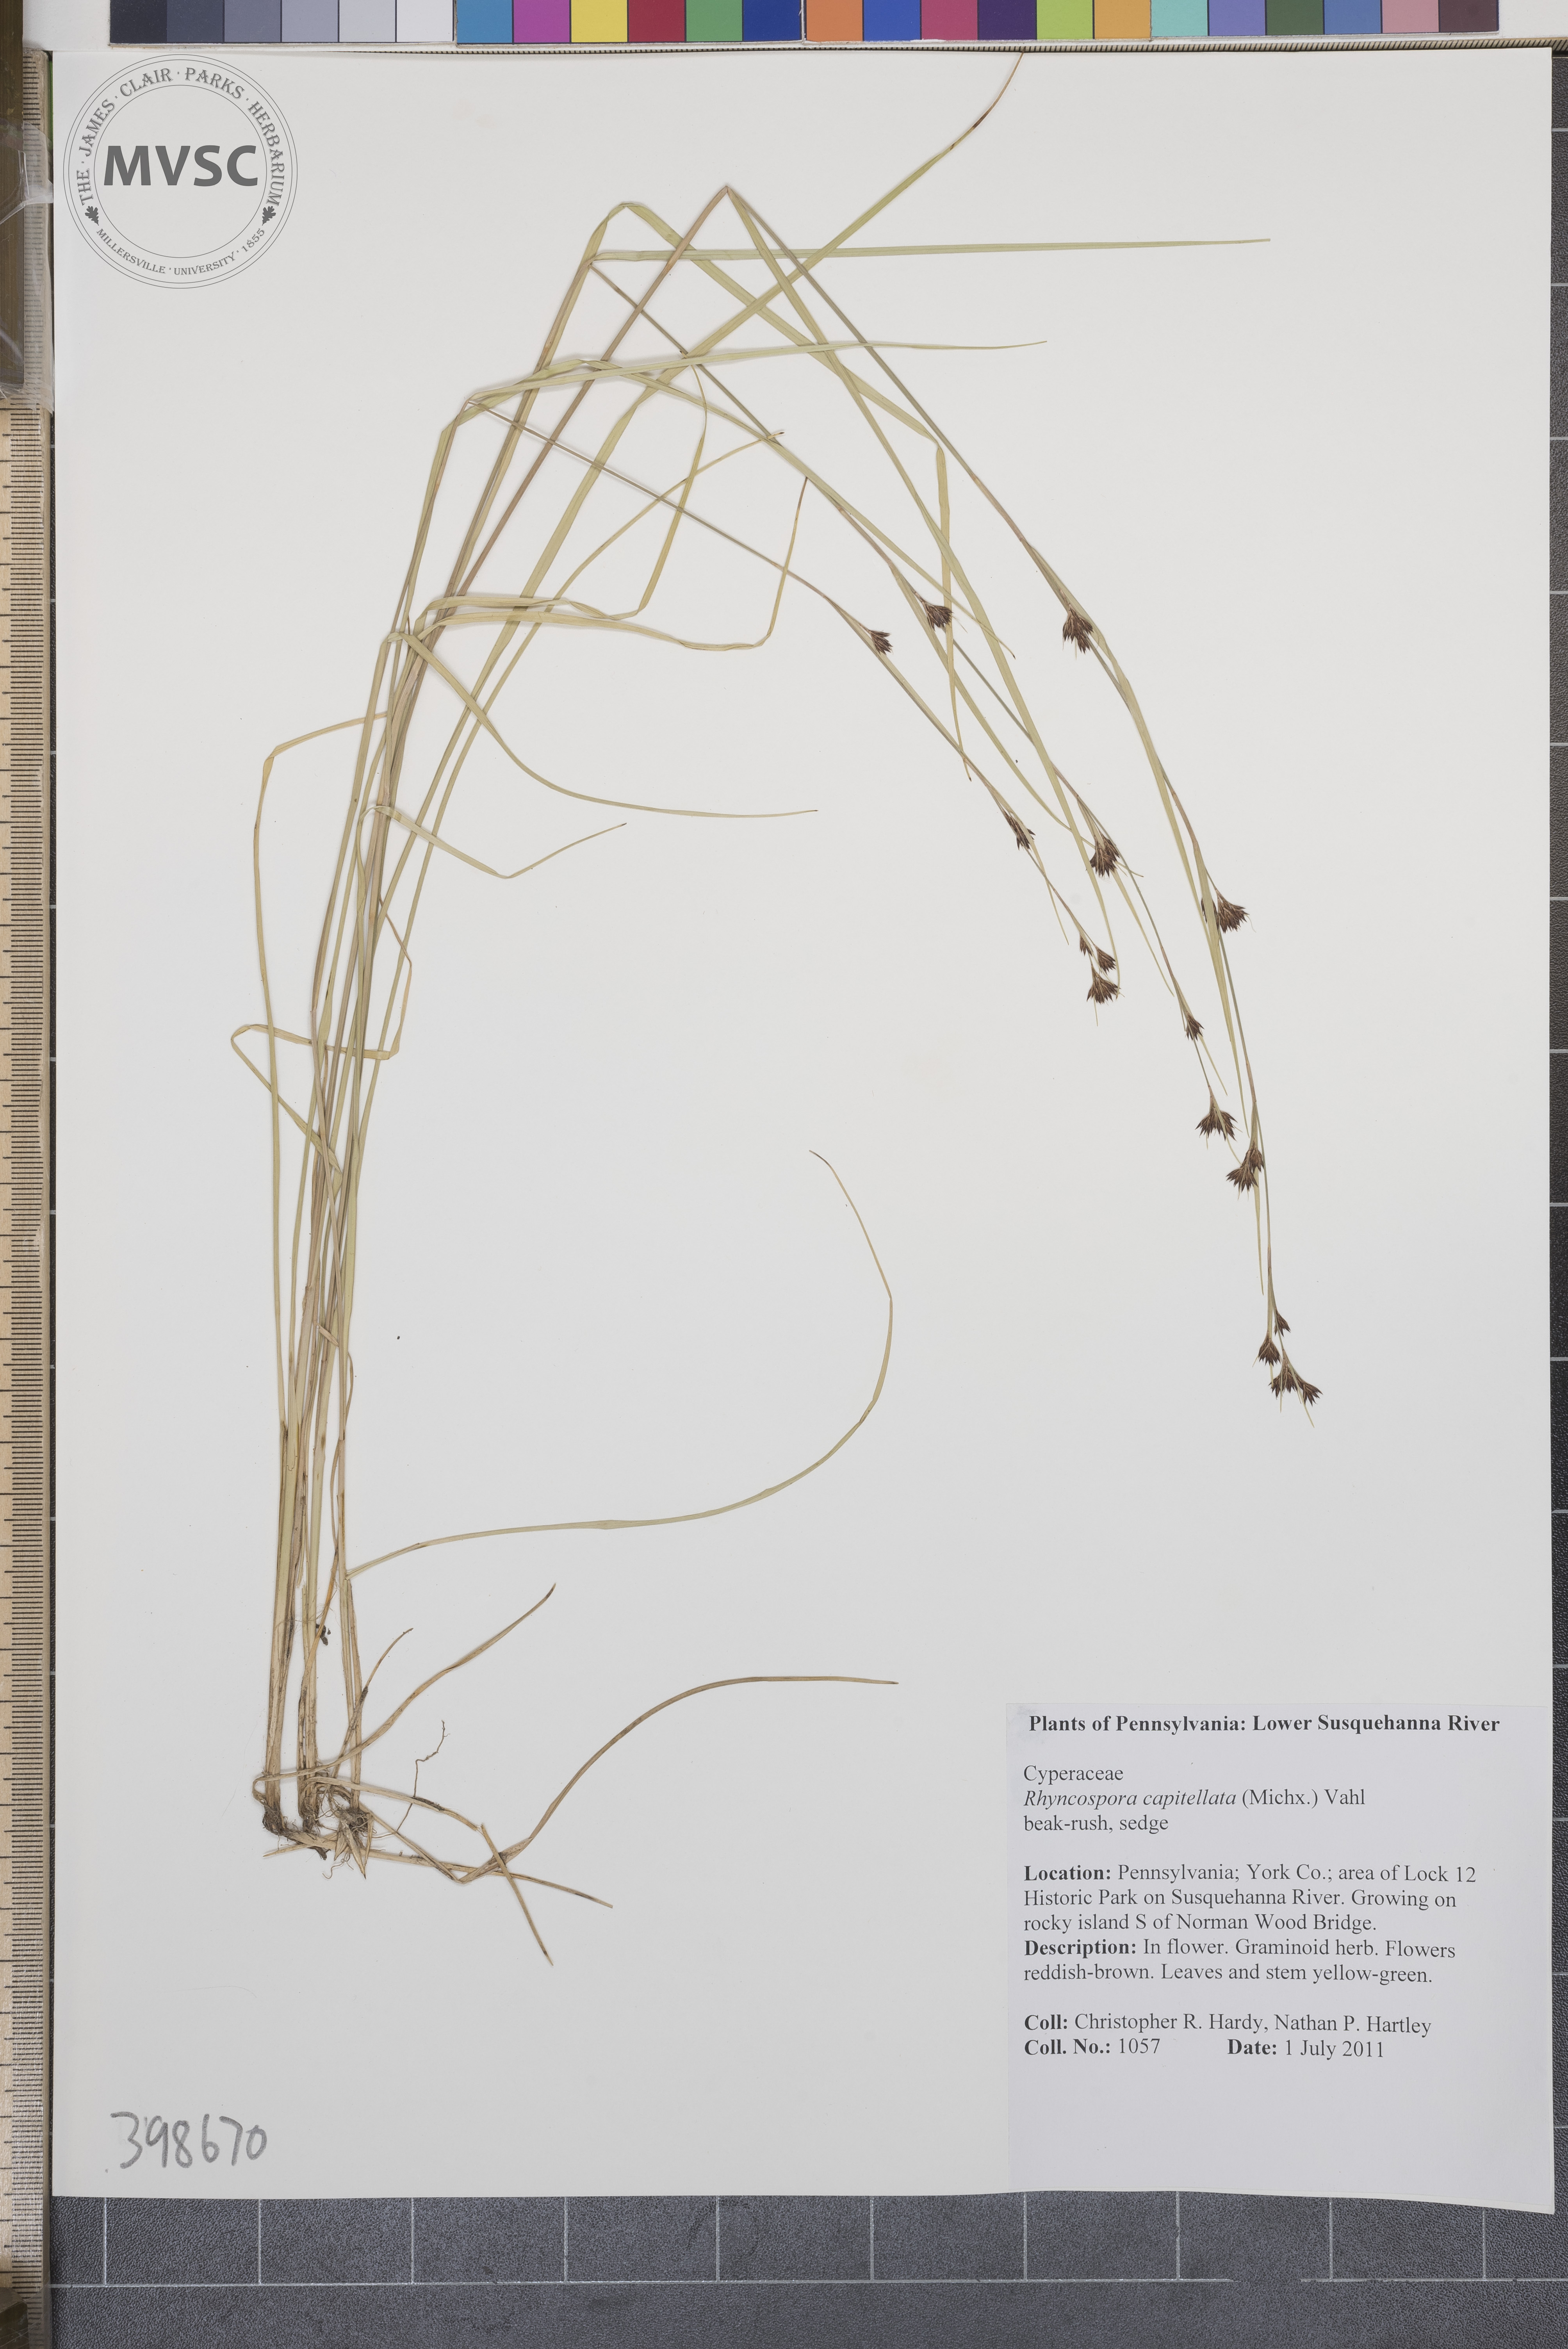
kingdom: Plantae
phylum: Tracheophyta
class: Liliopsida
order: Poales
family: Cyperaceae
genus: Rhynchospora
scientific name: Rhynchospora capitellata
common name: Beak-rush
